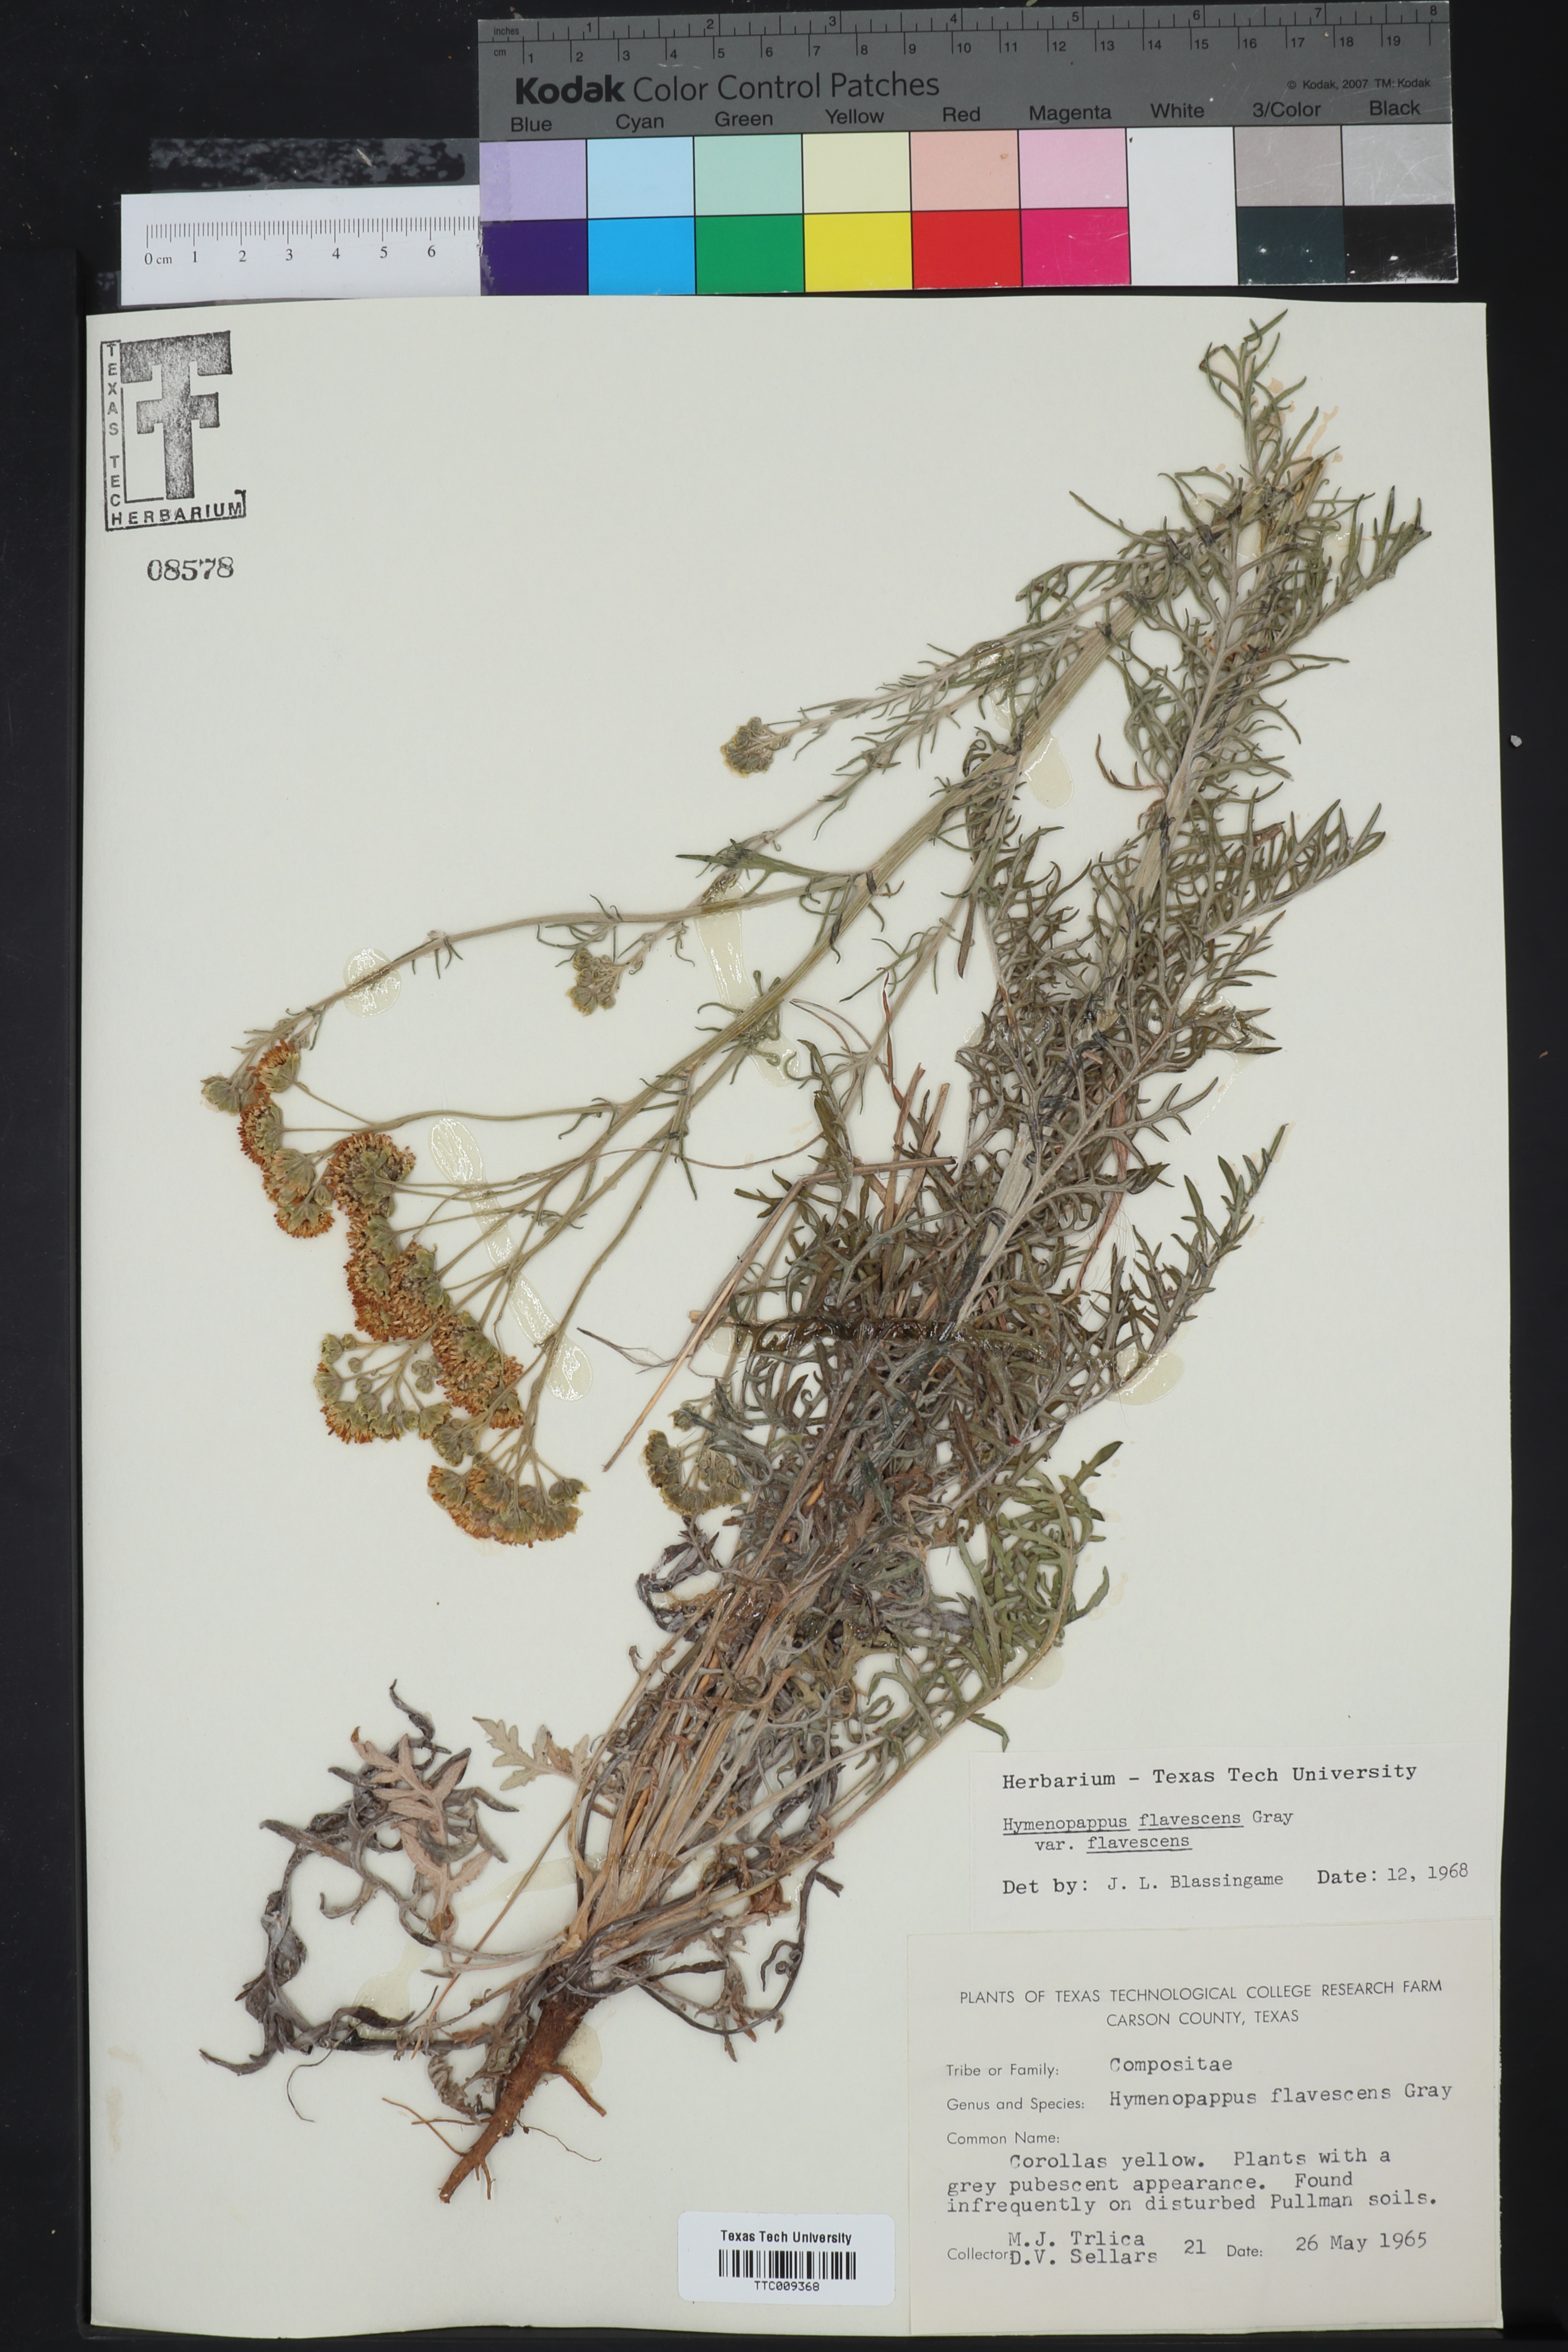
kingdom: Plantae
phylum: Tracheophyta
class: Magnoliopsida
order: Asterales
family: Asteraceae
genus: Hymenopappus
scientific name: Hymenopappus flavescens
